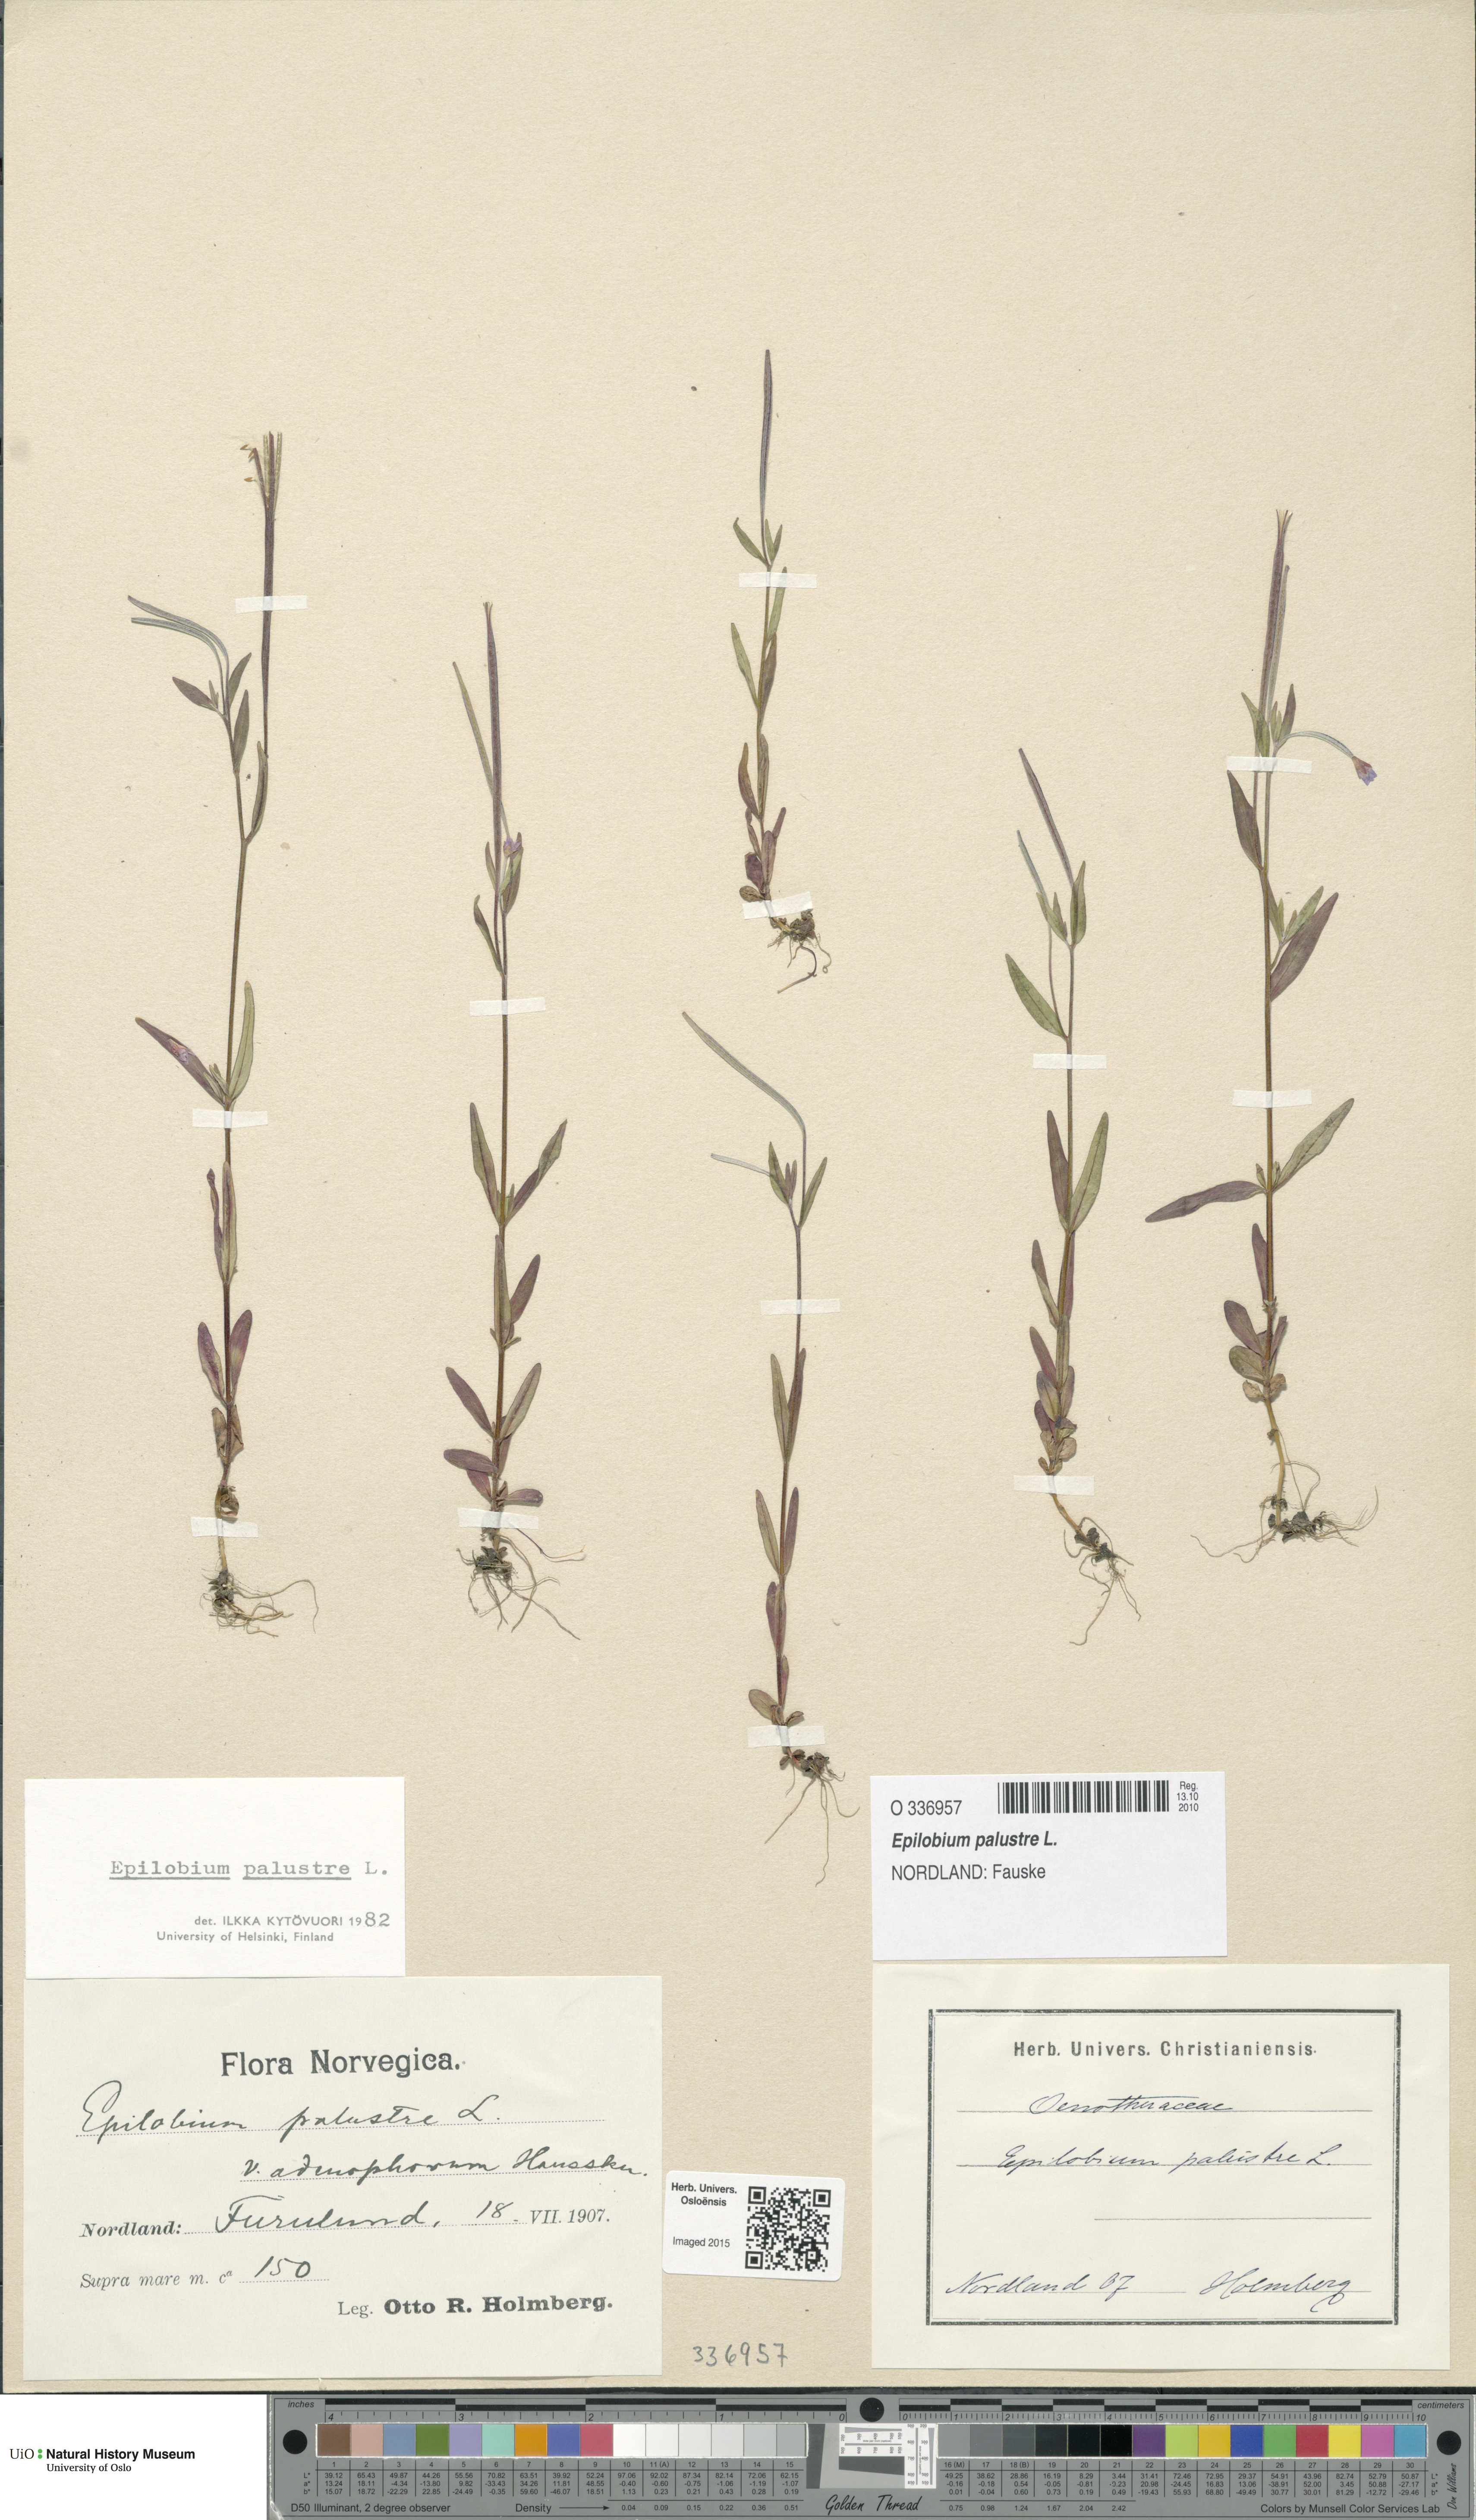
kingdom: Plantae
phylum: Tracheophyta
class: Magnoliopsida
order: Myrtales
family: Onagraceae
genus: Epilobium
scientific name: Epilobium palustre
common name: Marsh willowherb
